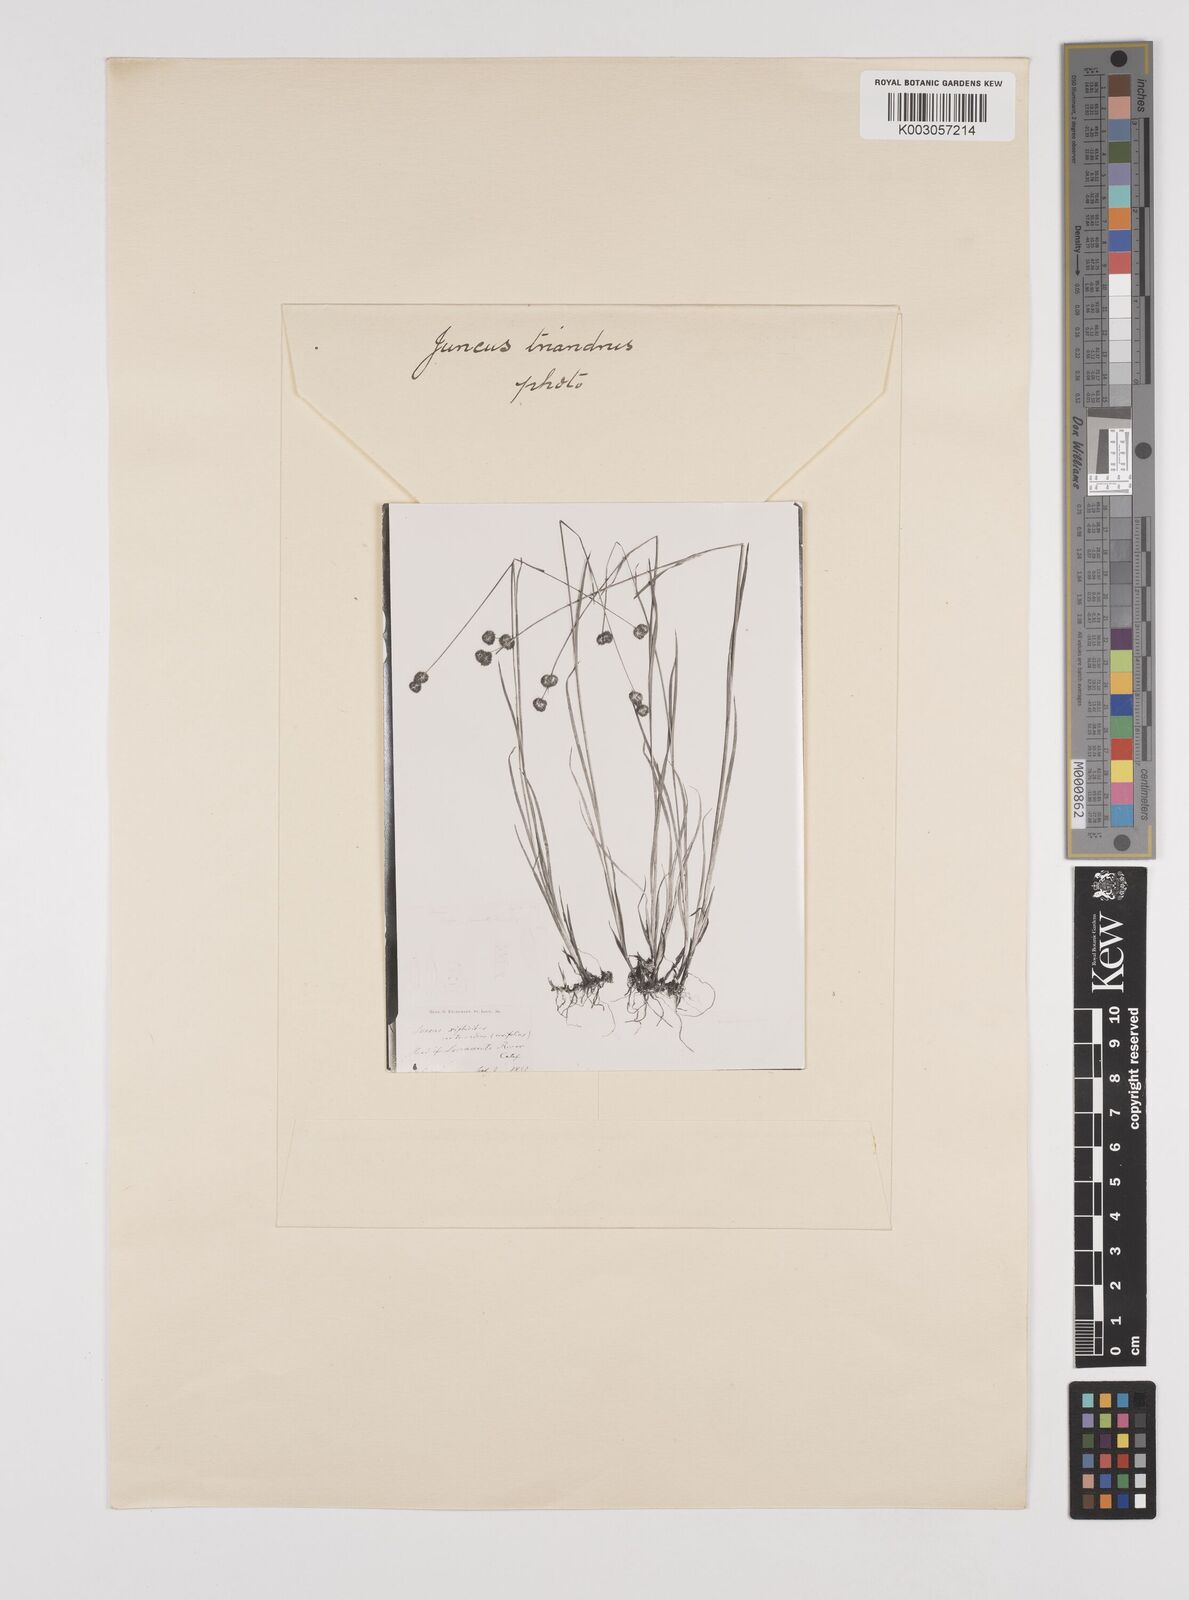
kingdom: Plantae
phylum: Tracheophyta
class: Liliopsida
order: Poales
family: Juncaceae
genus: Juncus
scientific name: Juncus ensifolius
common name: Sword-leaved rush
